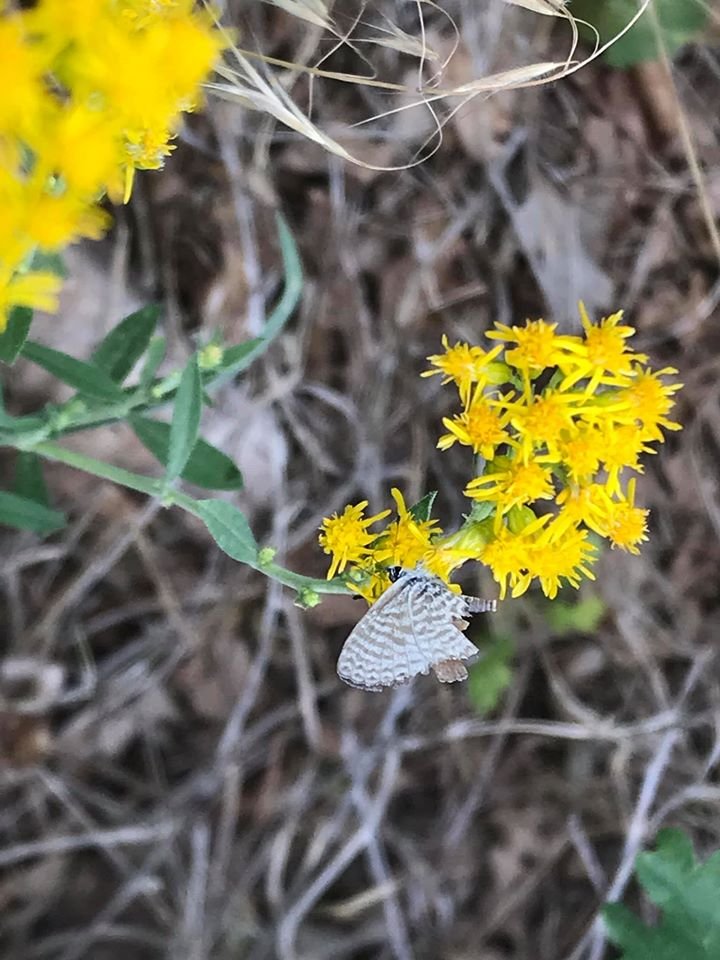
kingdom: Animalia
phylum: Arthropoda
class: Insecta
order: Lepidoptera
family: Lycaenidae
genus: Leptotes
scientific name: Leptotes marina
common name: Marine Blue
